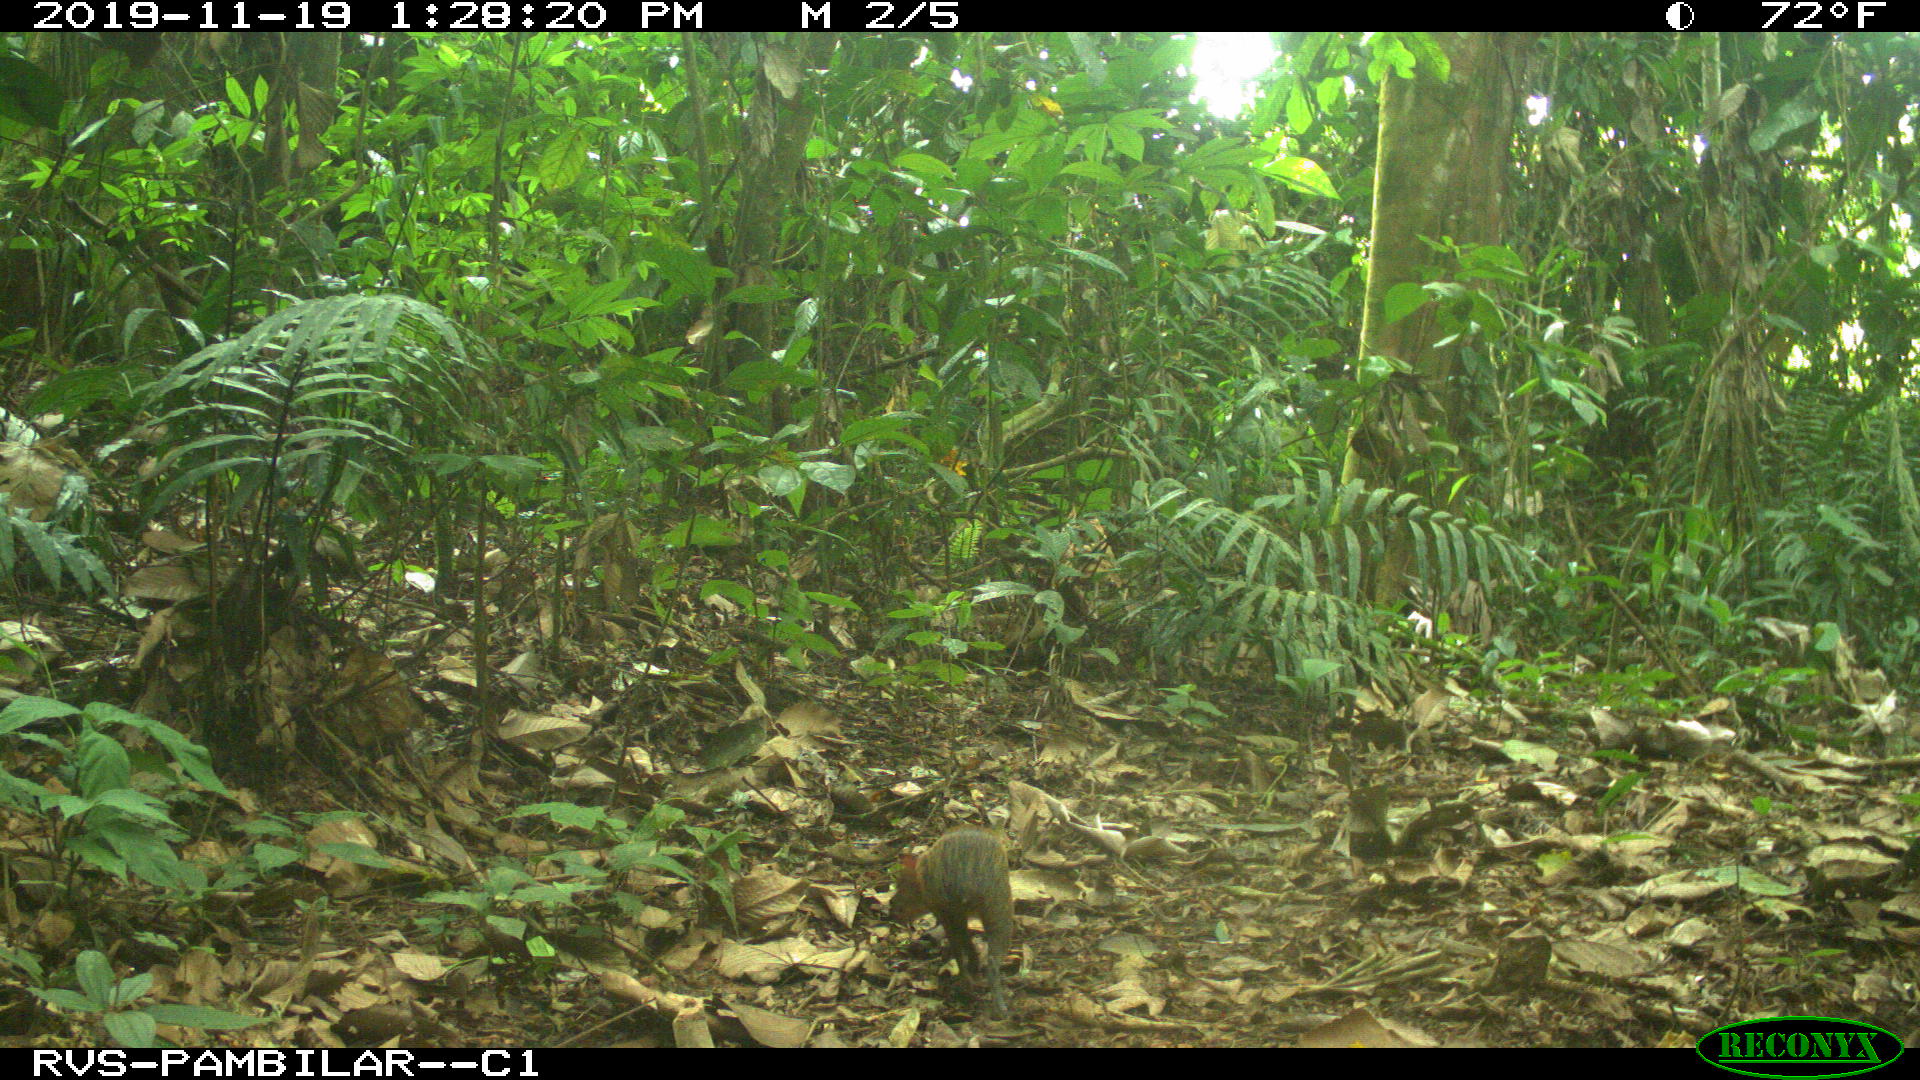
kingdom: Animalia
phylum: Chordata
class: Mammalia
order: Rodentia
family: Dasyproctidae
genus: Dasyprocta
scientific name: Dasyprocta punctata
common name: Central american agouti
